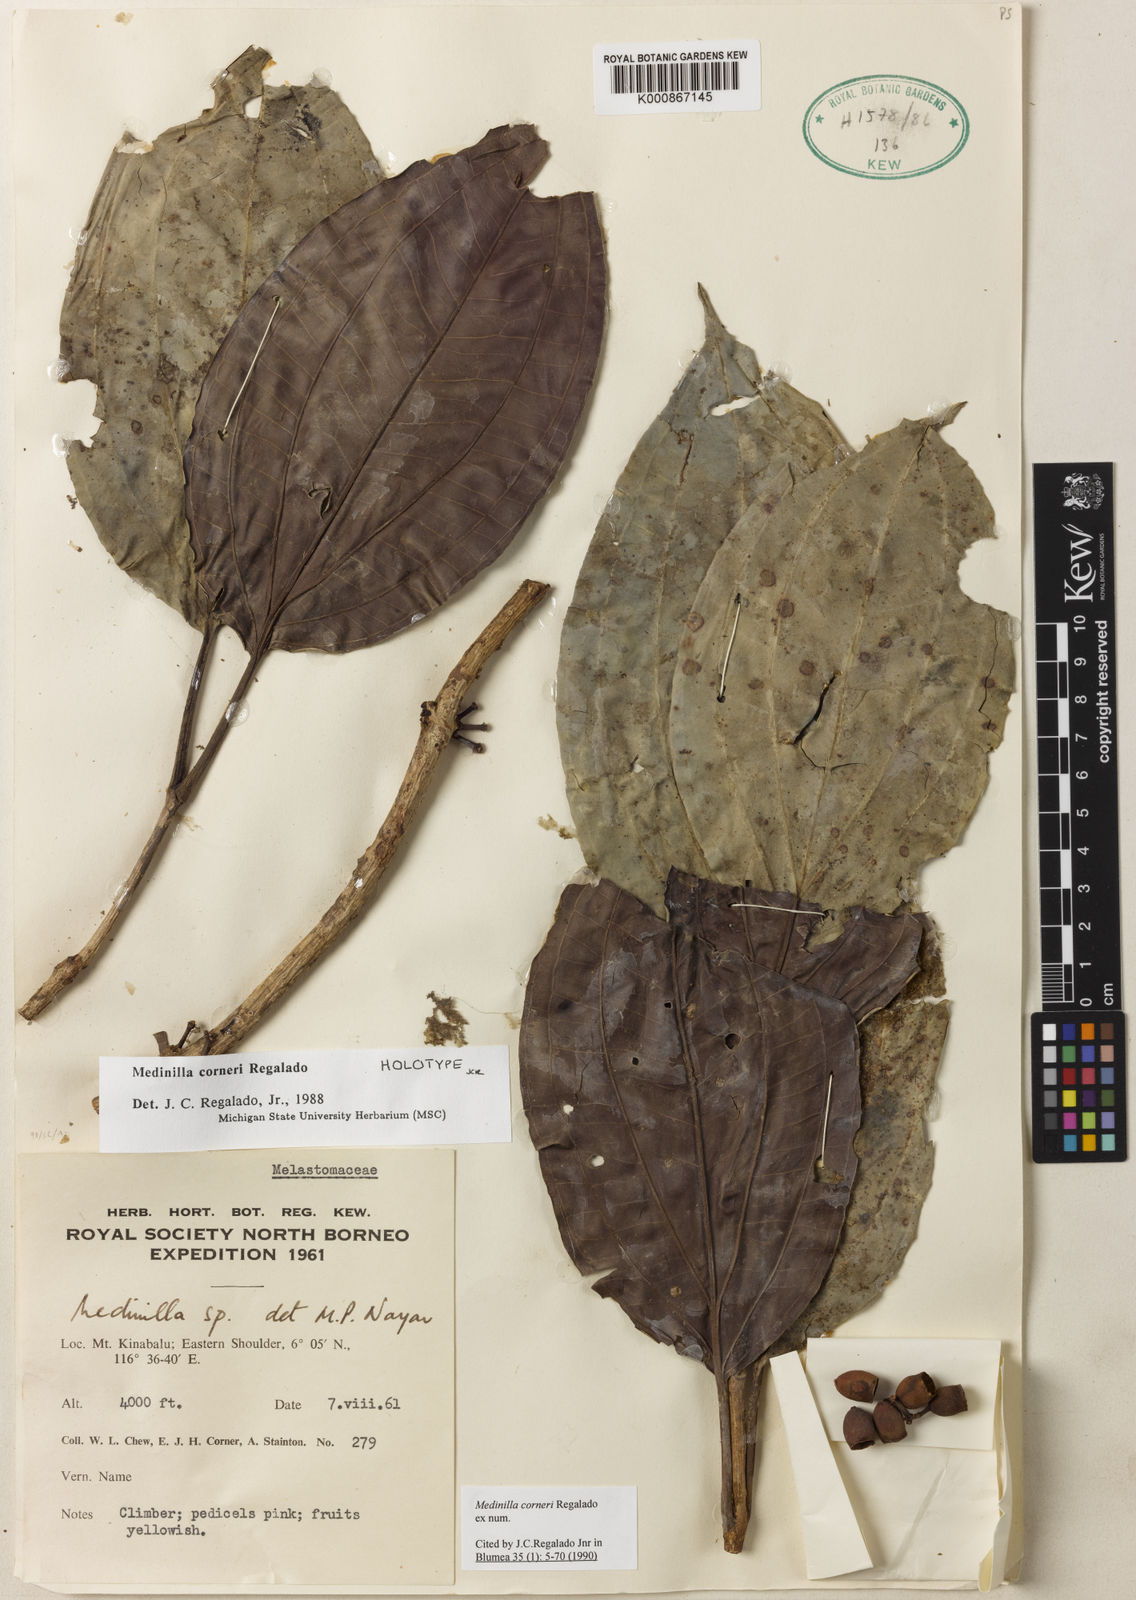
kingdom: Plantae
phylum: Tracheophyta
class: Magnoliopsida
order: Myrtales
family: Melastomataceae
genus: Medinilla
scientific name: Medinilla corneri
